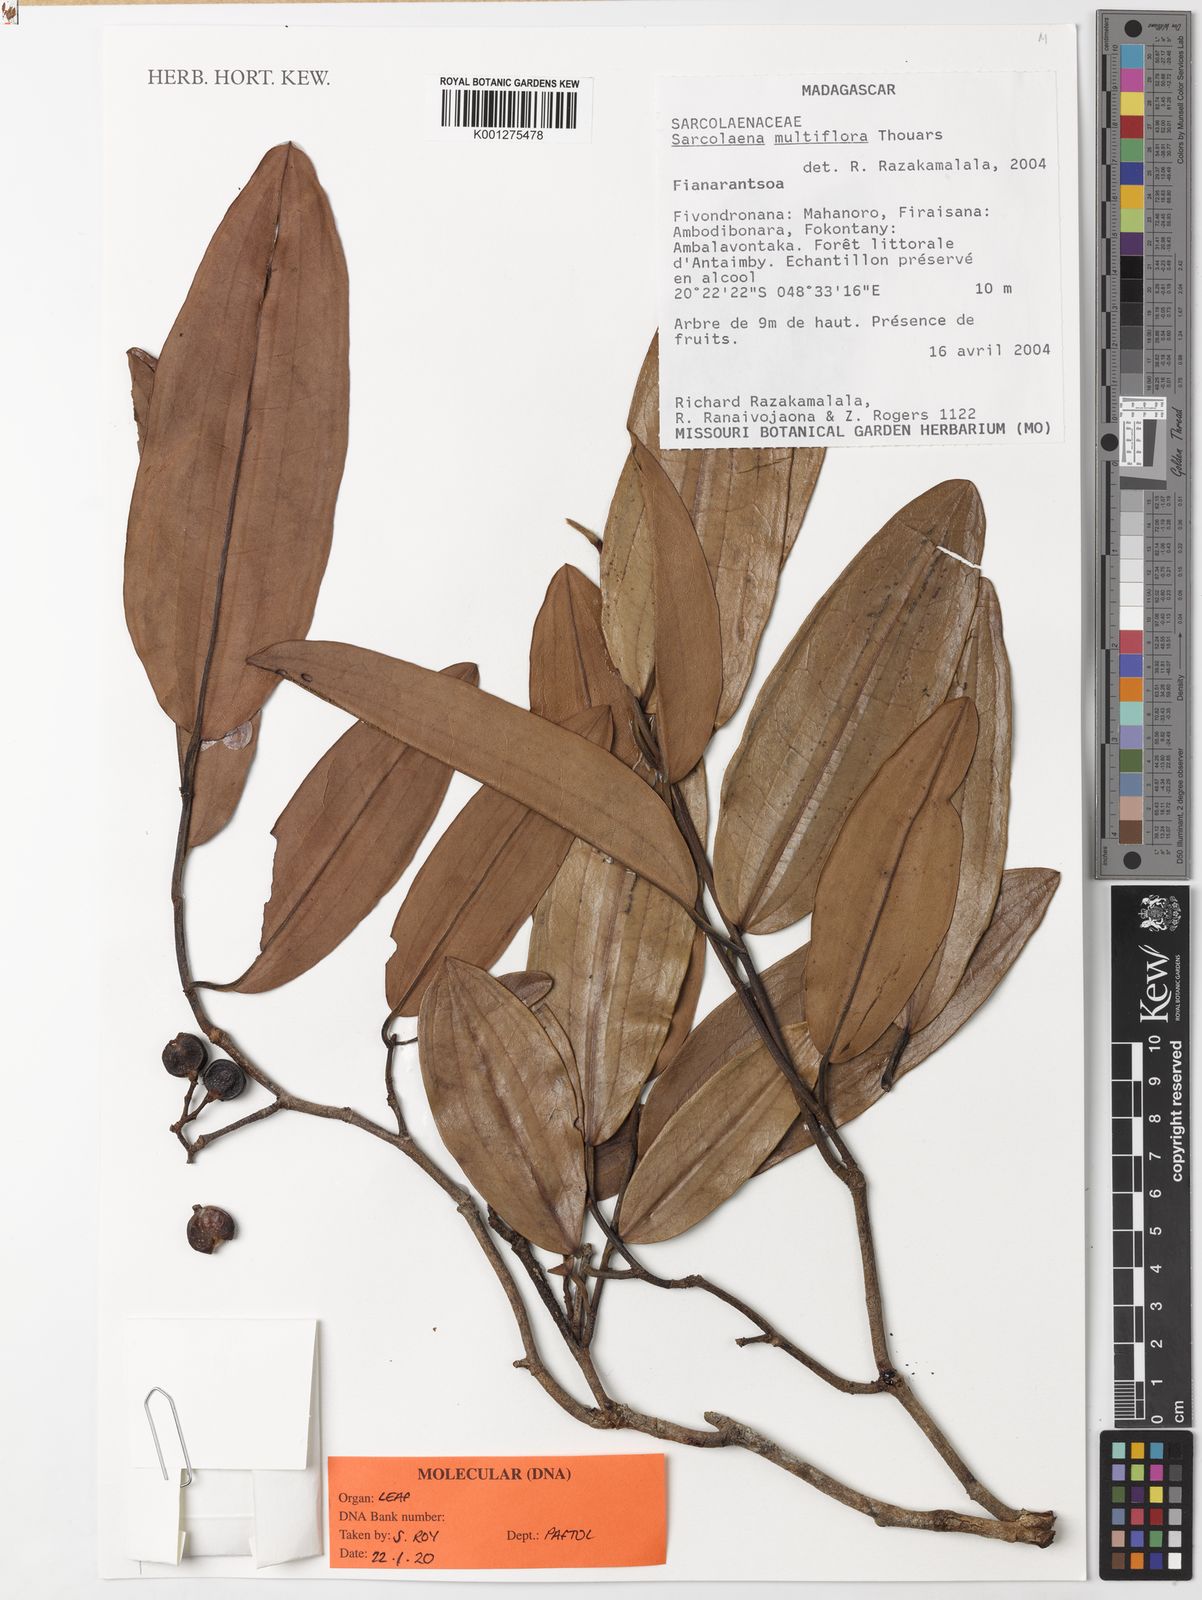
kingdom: Plantae
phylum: Tracheophyta
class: Magnoliopsida
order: Malvales
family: Sarcolaenaceae
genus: Sarcolaena
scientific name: Sarcolaena multiflora
